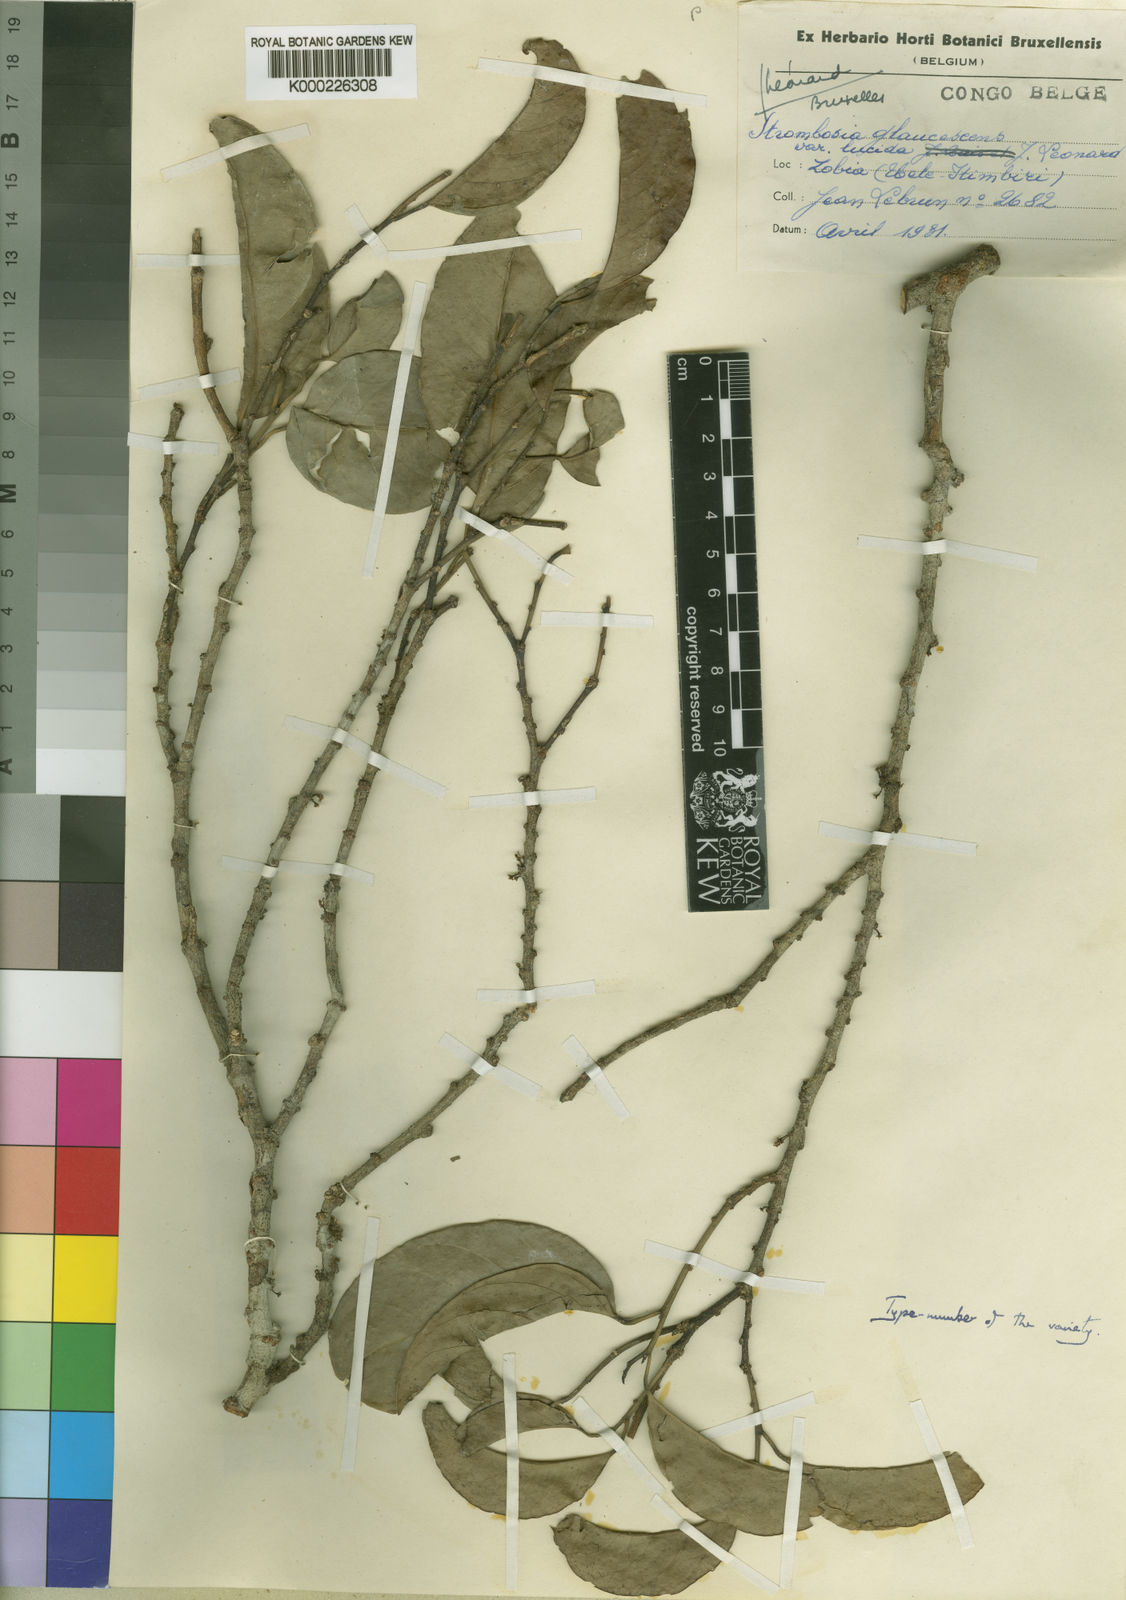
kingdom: Plantae
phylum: Tracheophyta
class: Magnoliopsida
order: Santalales
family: Strombosiaceae
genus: Strombosia
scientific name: Strombosia pustulata
